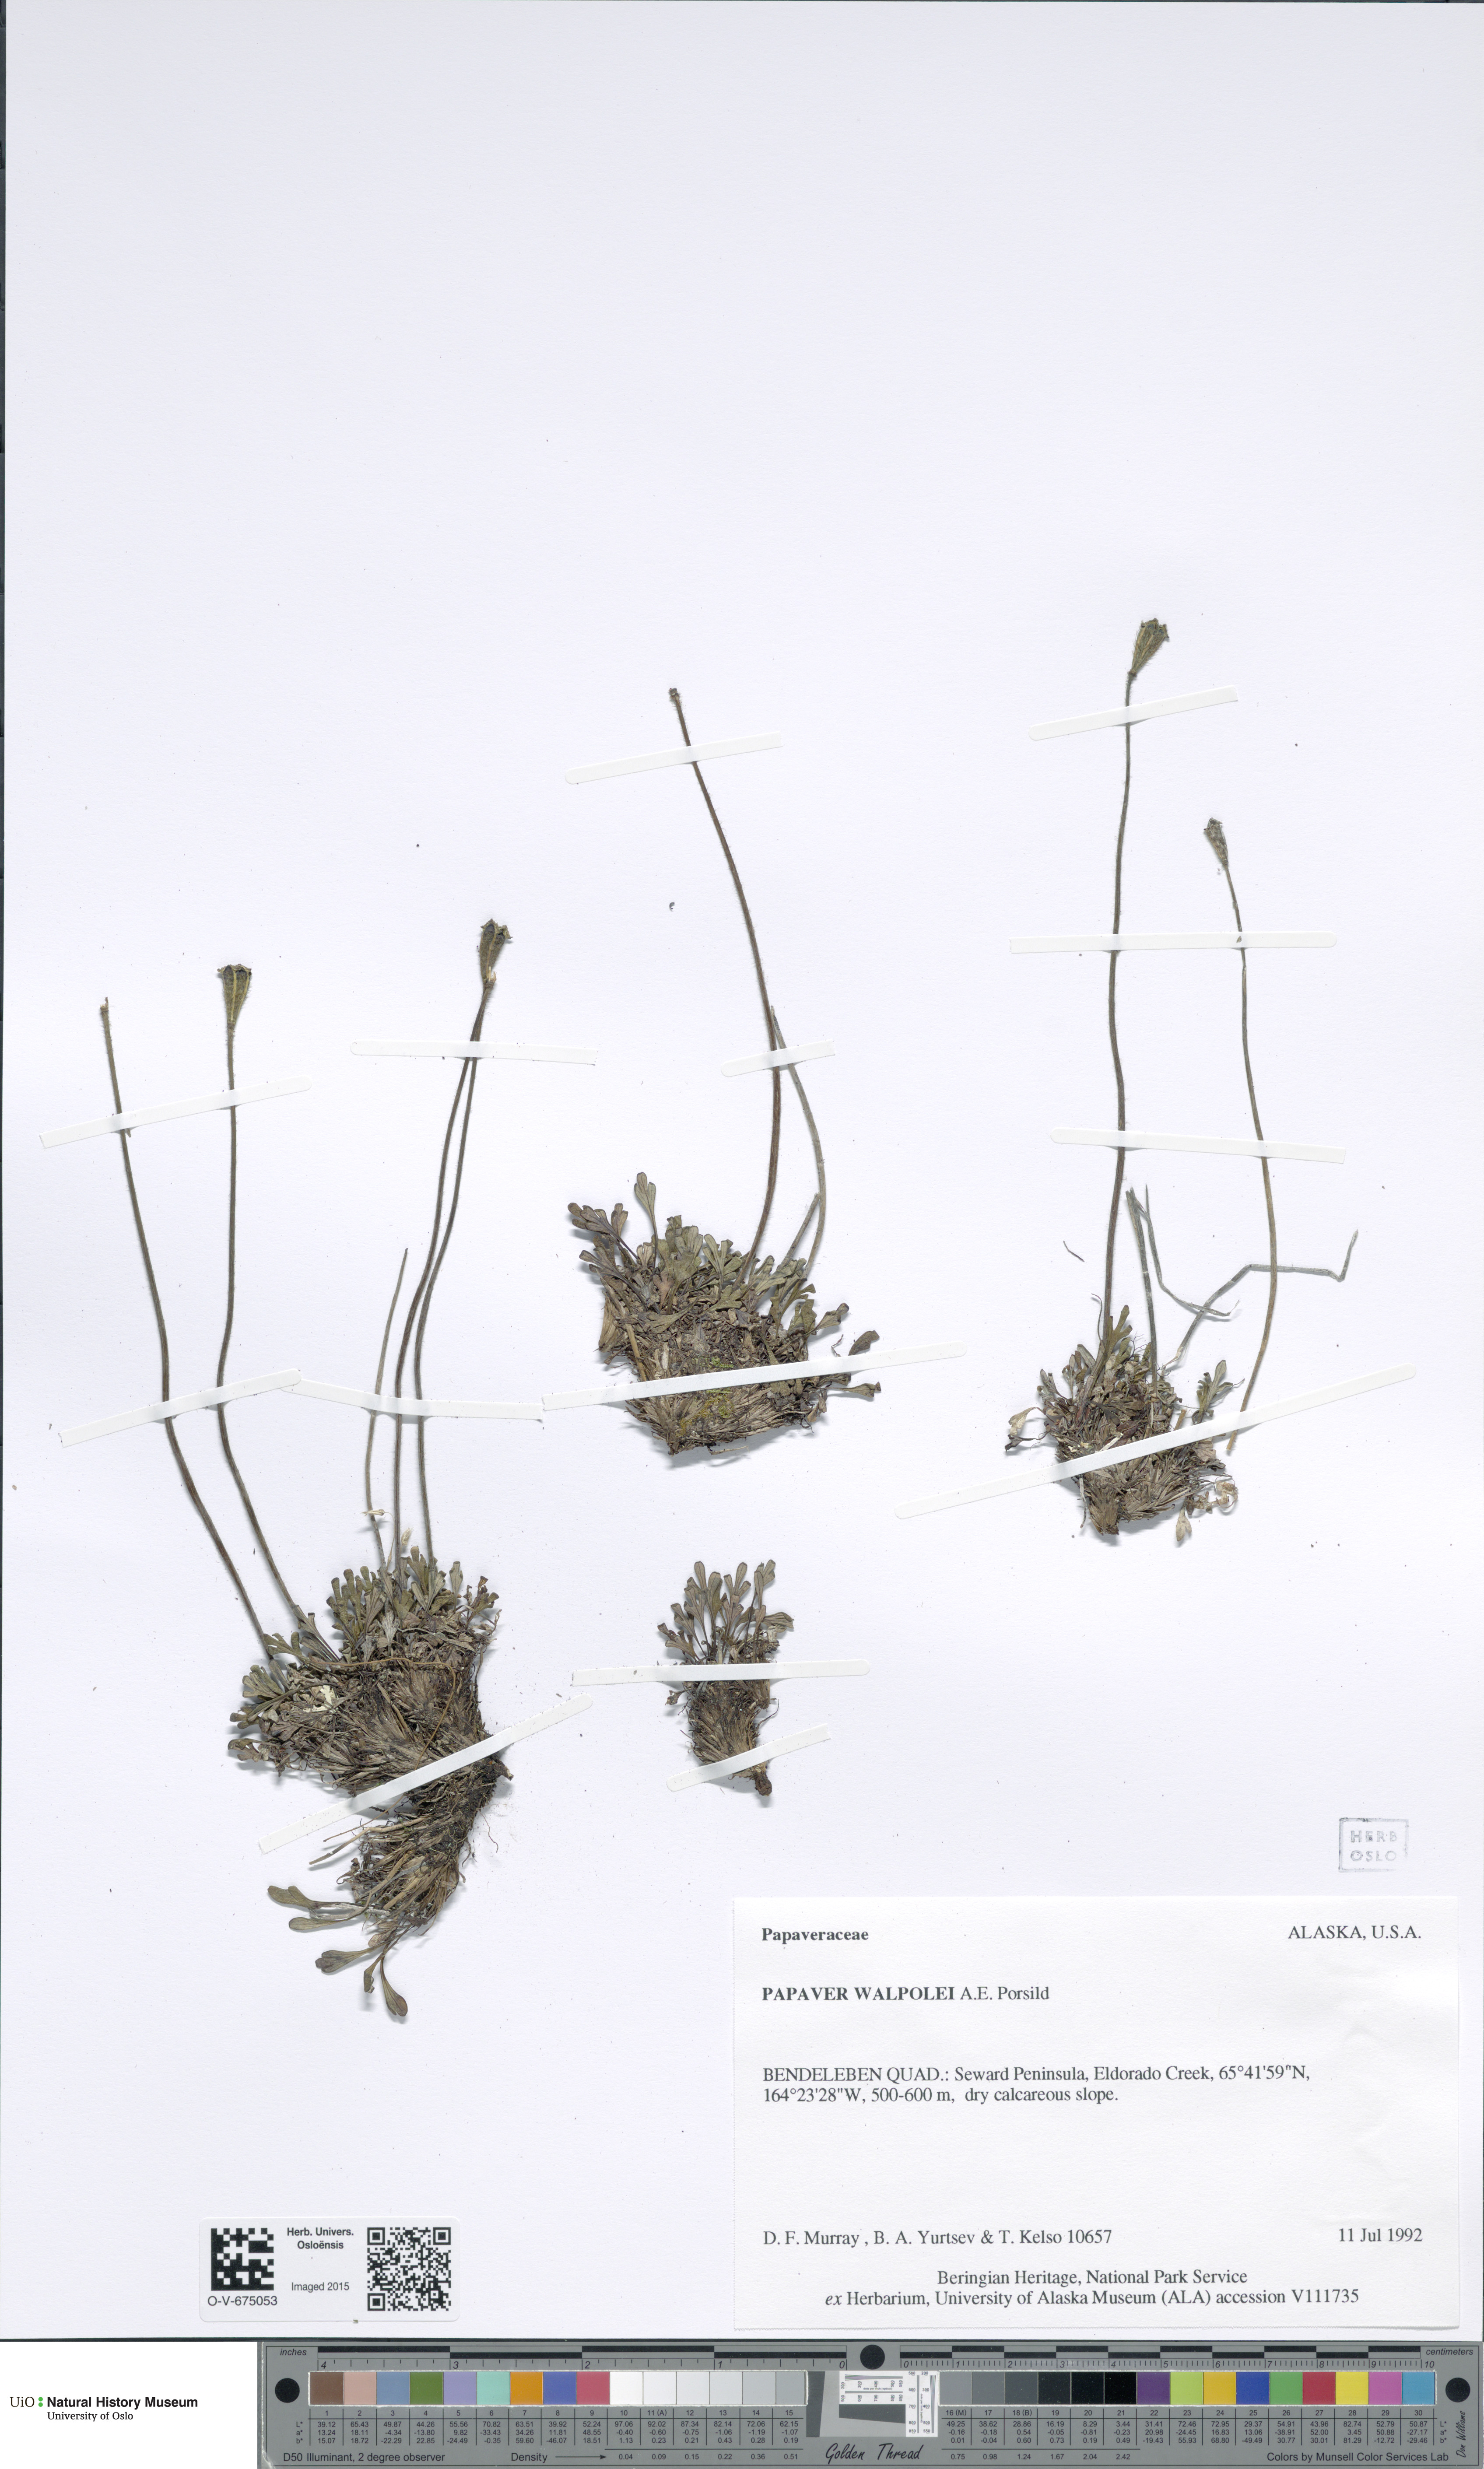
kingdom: Plantae
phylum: Tracheophyta
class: Magnoliopsida
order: Ranunculales
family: Papaveraceae
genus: Papaver
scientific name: Papaver walpolei
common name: Walpole's poppy
